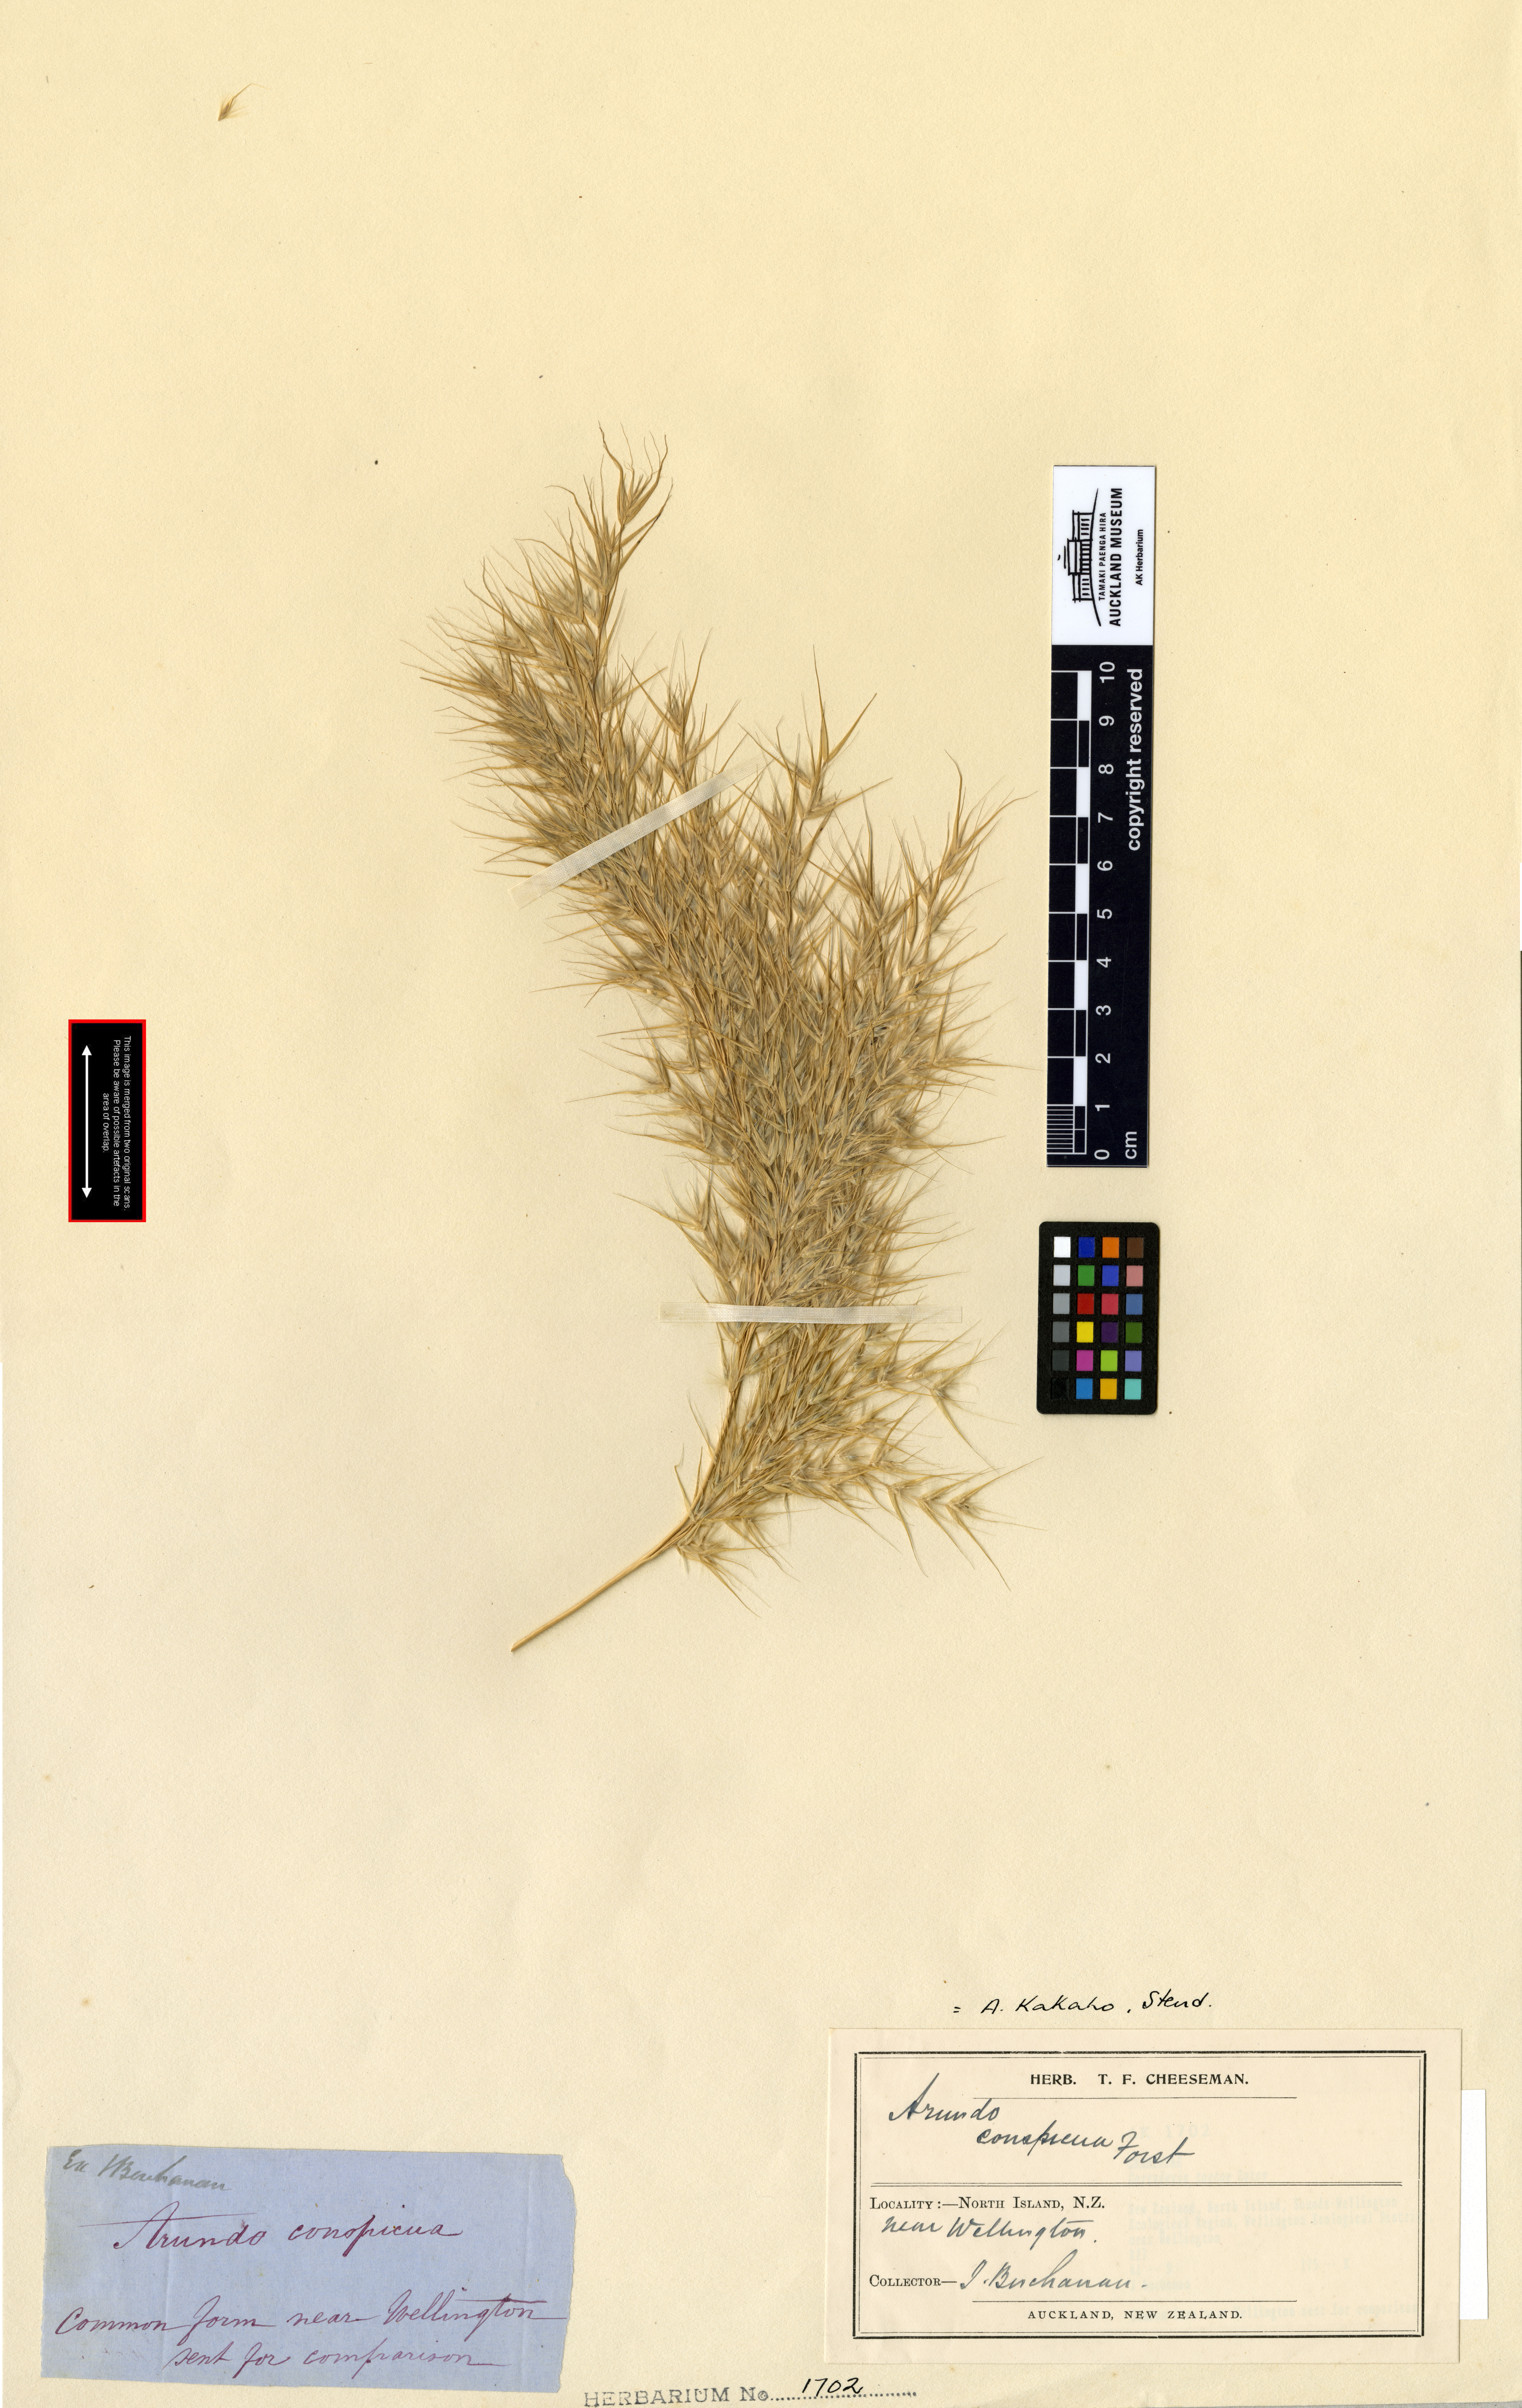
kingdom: Plantae
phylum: Tracheophyta
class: Liliopsida
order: Poales
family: Poaceae
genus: Austroderia
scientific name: Austroderia toetoe
